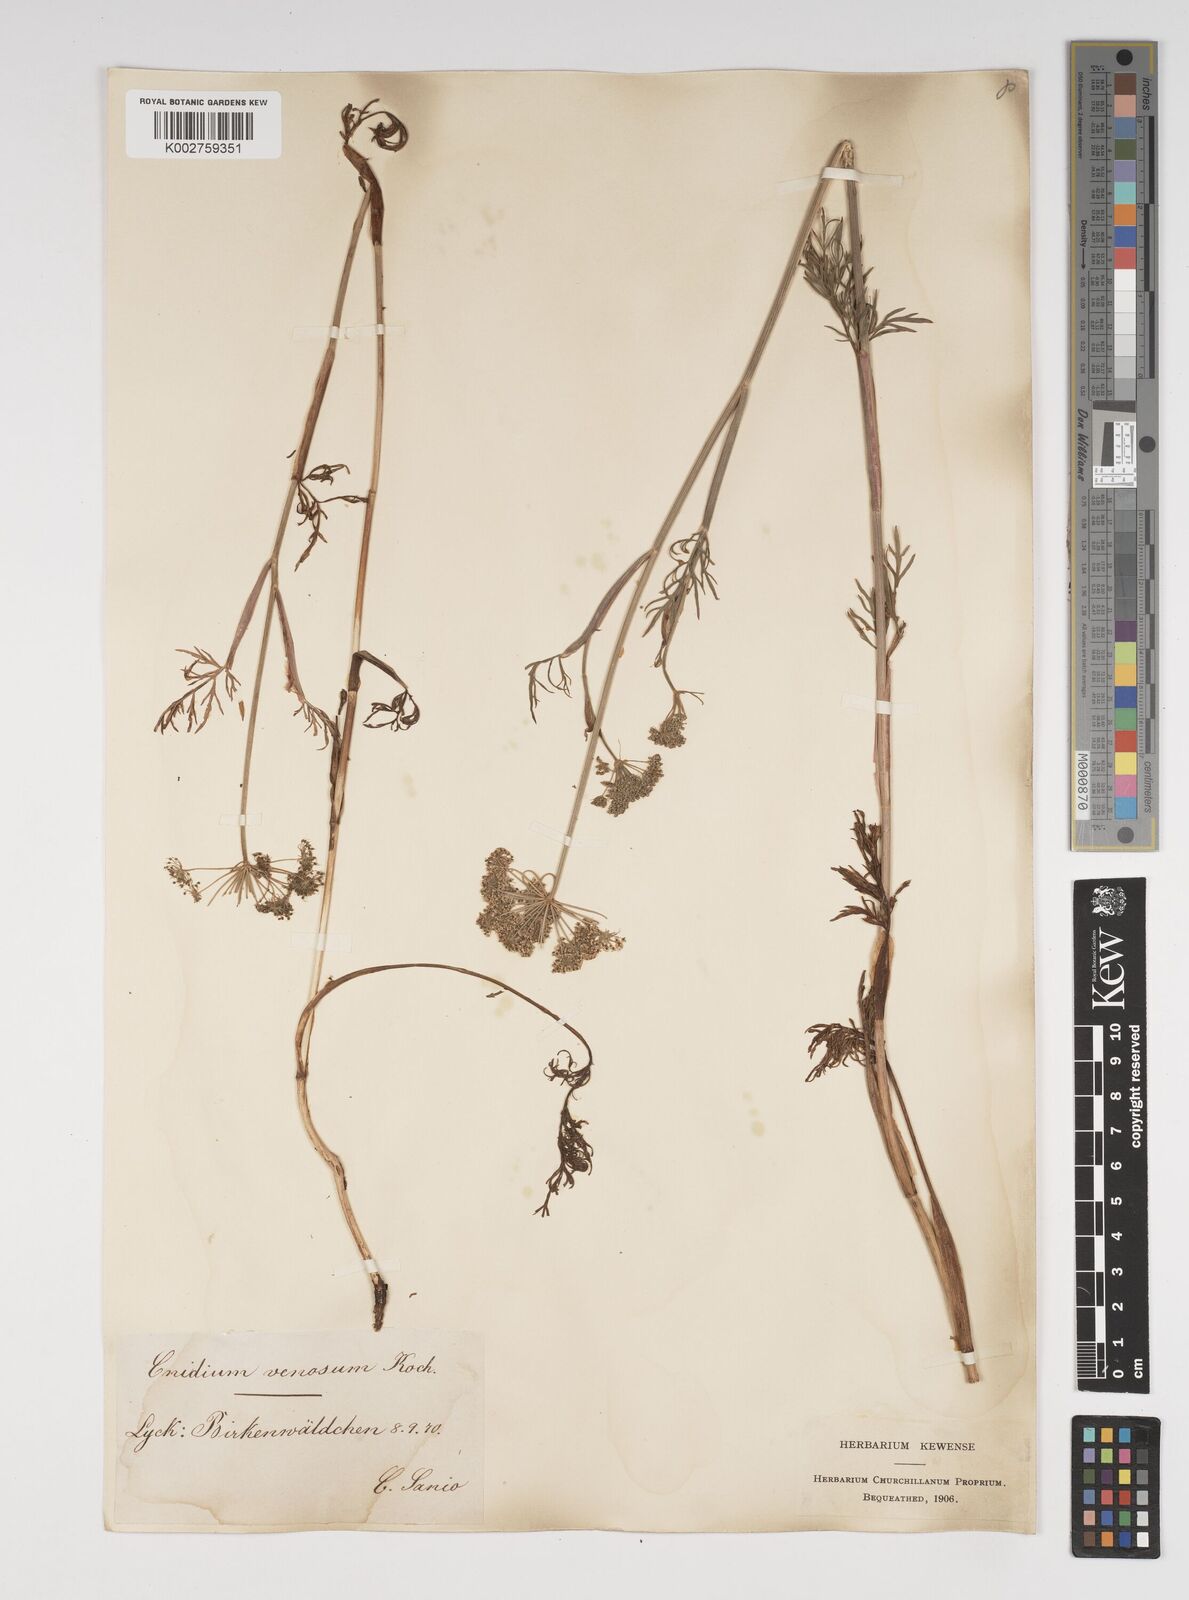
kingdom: Plantae
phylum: Tracheophyta
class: Magnoliopsida
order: Apiales
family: Apiaceae
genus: Kadenia
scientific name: Kadenia dubia
